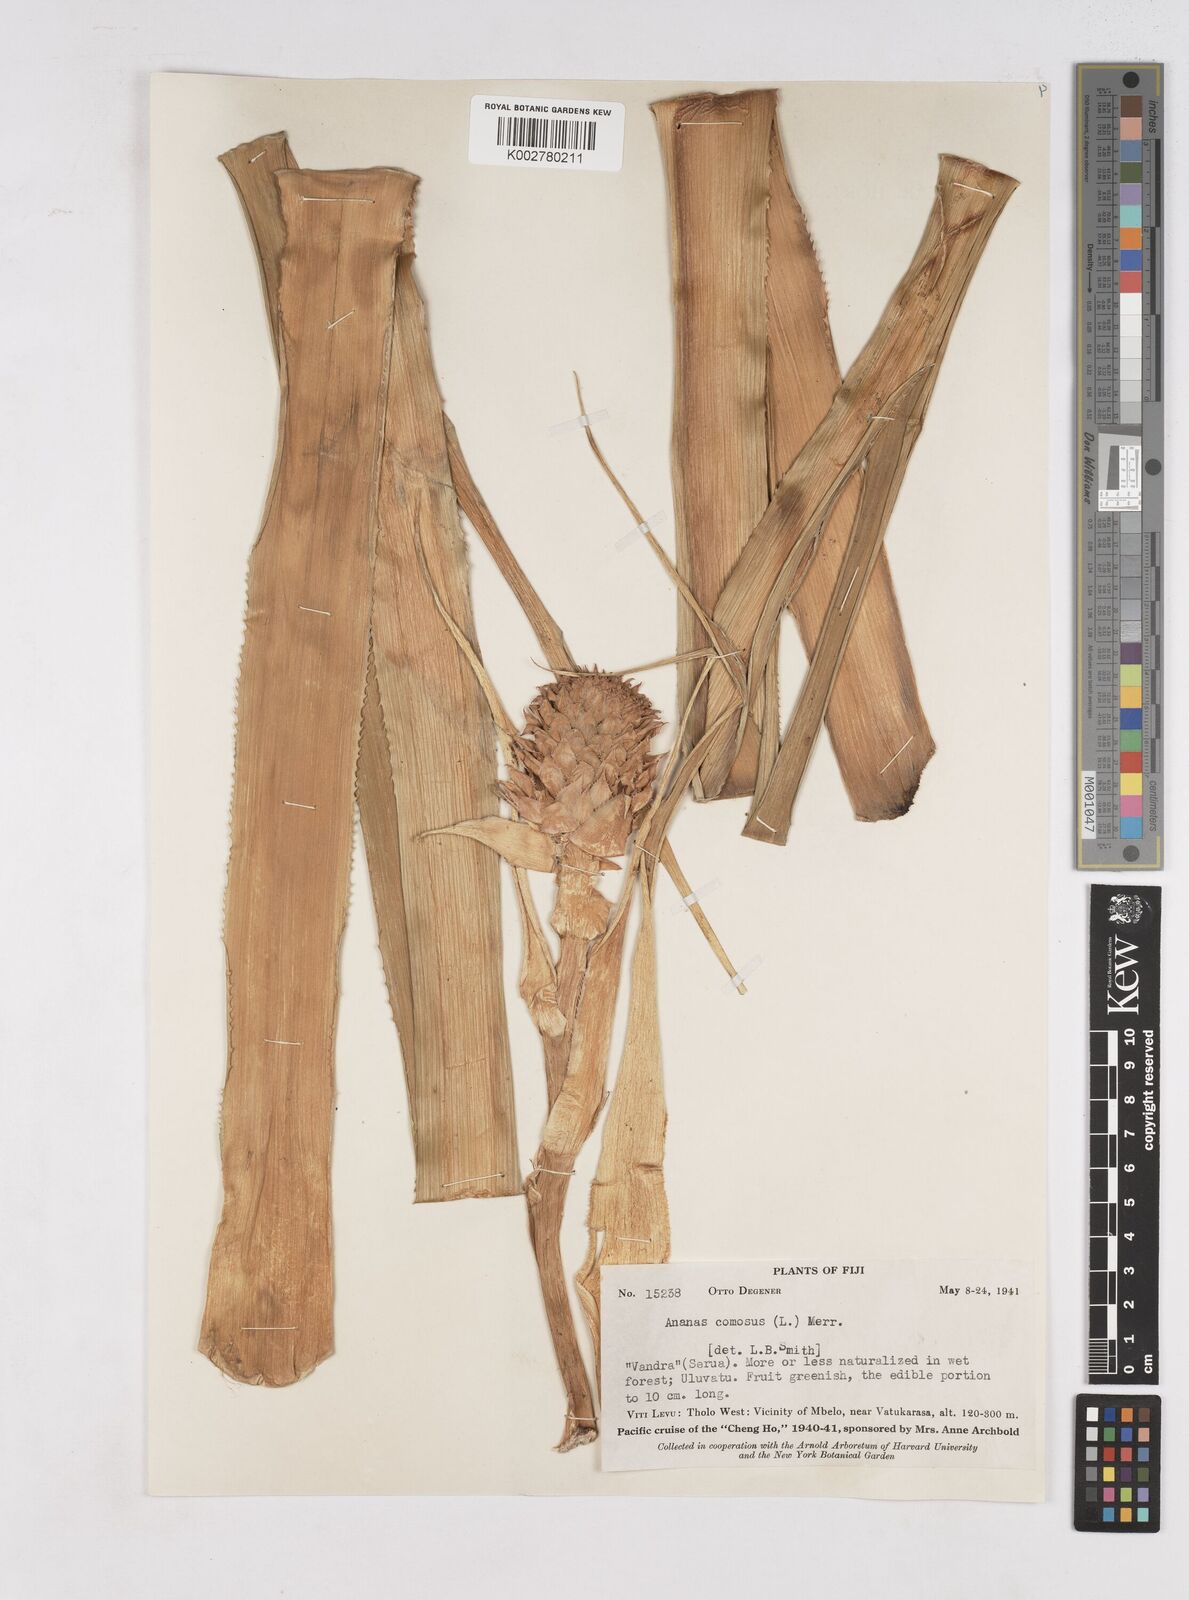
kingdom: Plantae
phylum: Tracheophyta
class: Liliopsida
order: Poales
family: Bromeliaceae
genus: Ananas
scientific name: Ananas comosus
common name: Pineapple
